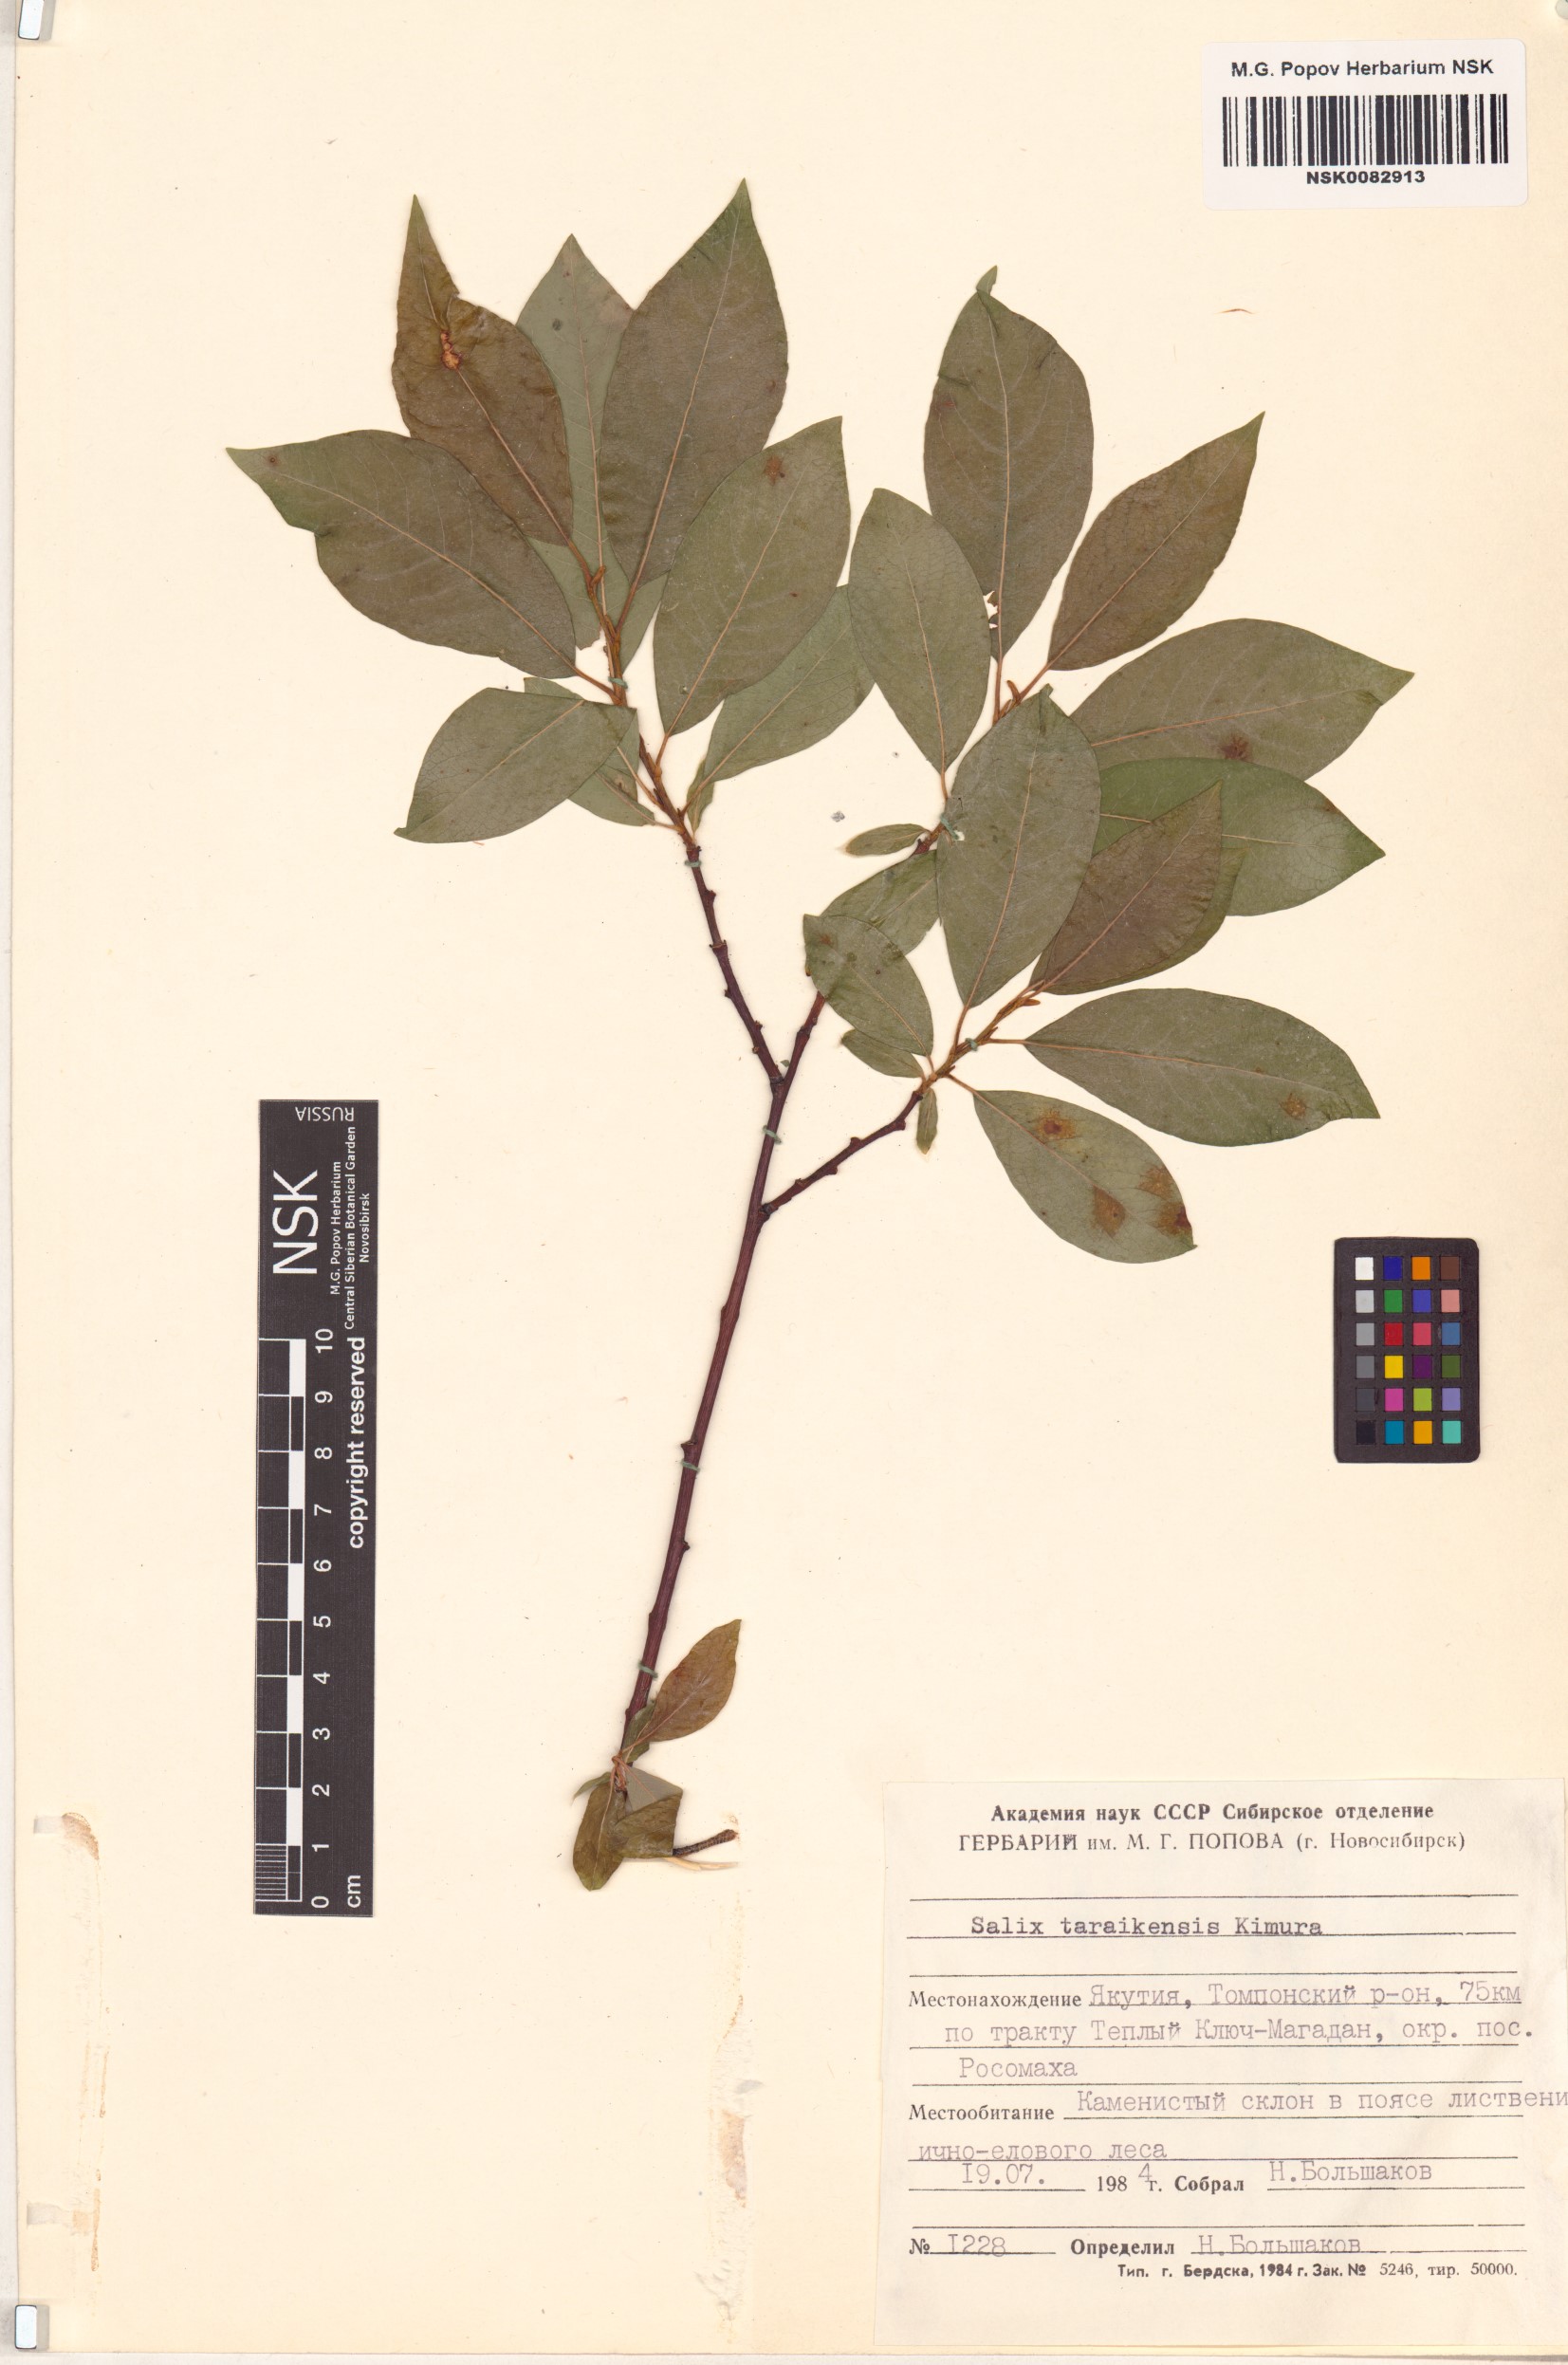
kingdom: Plantae
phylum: Tracheophyta
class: Magnoliopsida
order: Malpighiales
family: Salicaceae
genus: Salix
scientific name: Salix taraikensis
